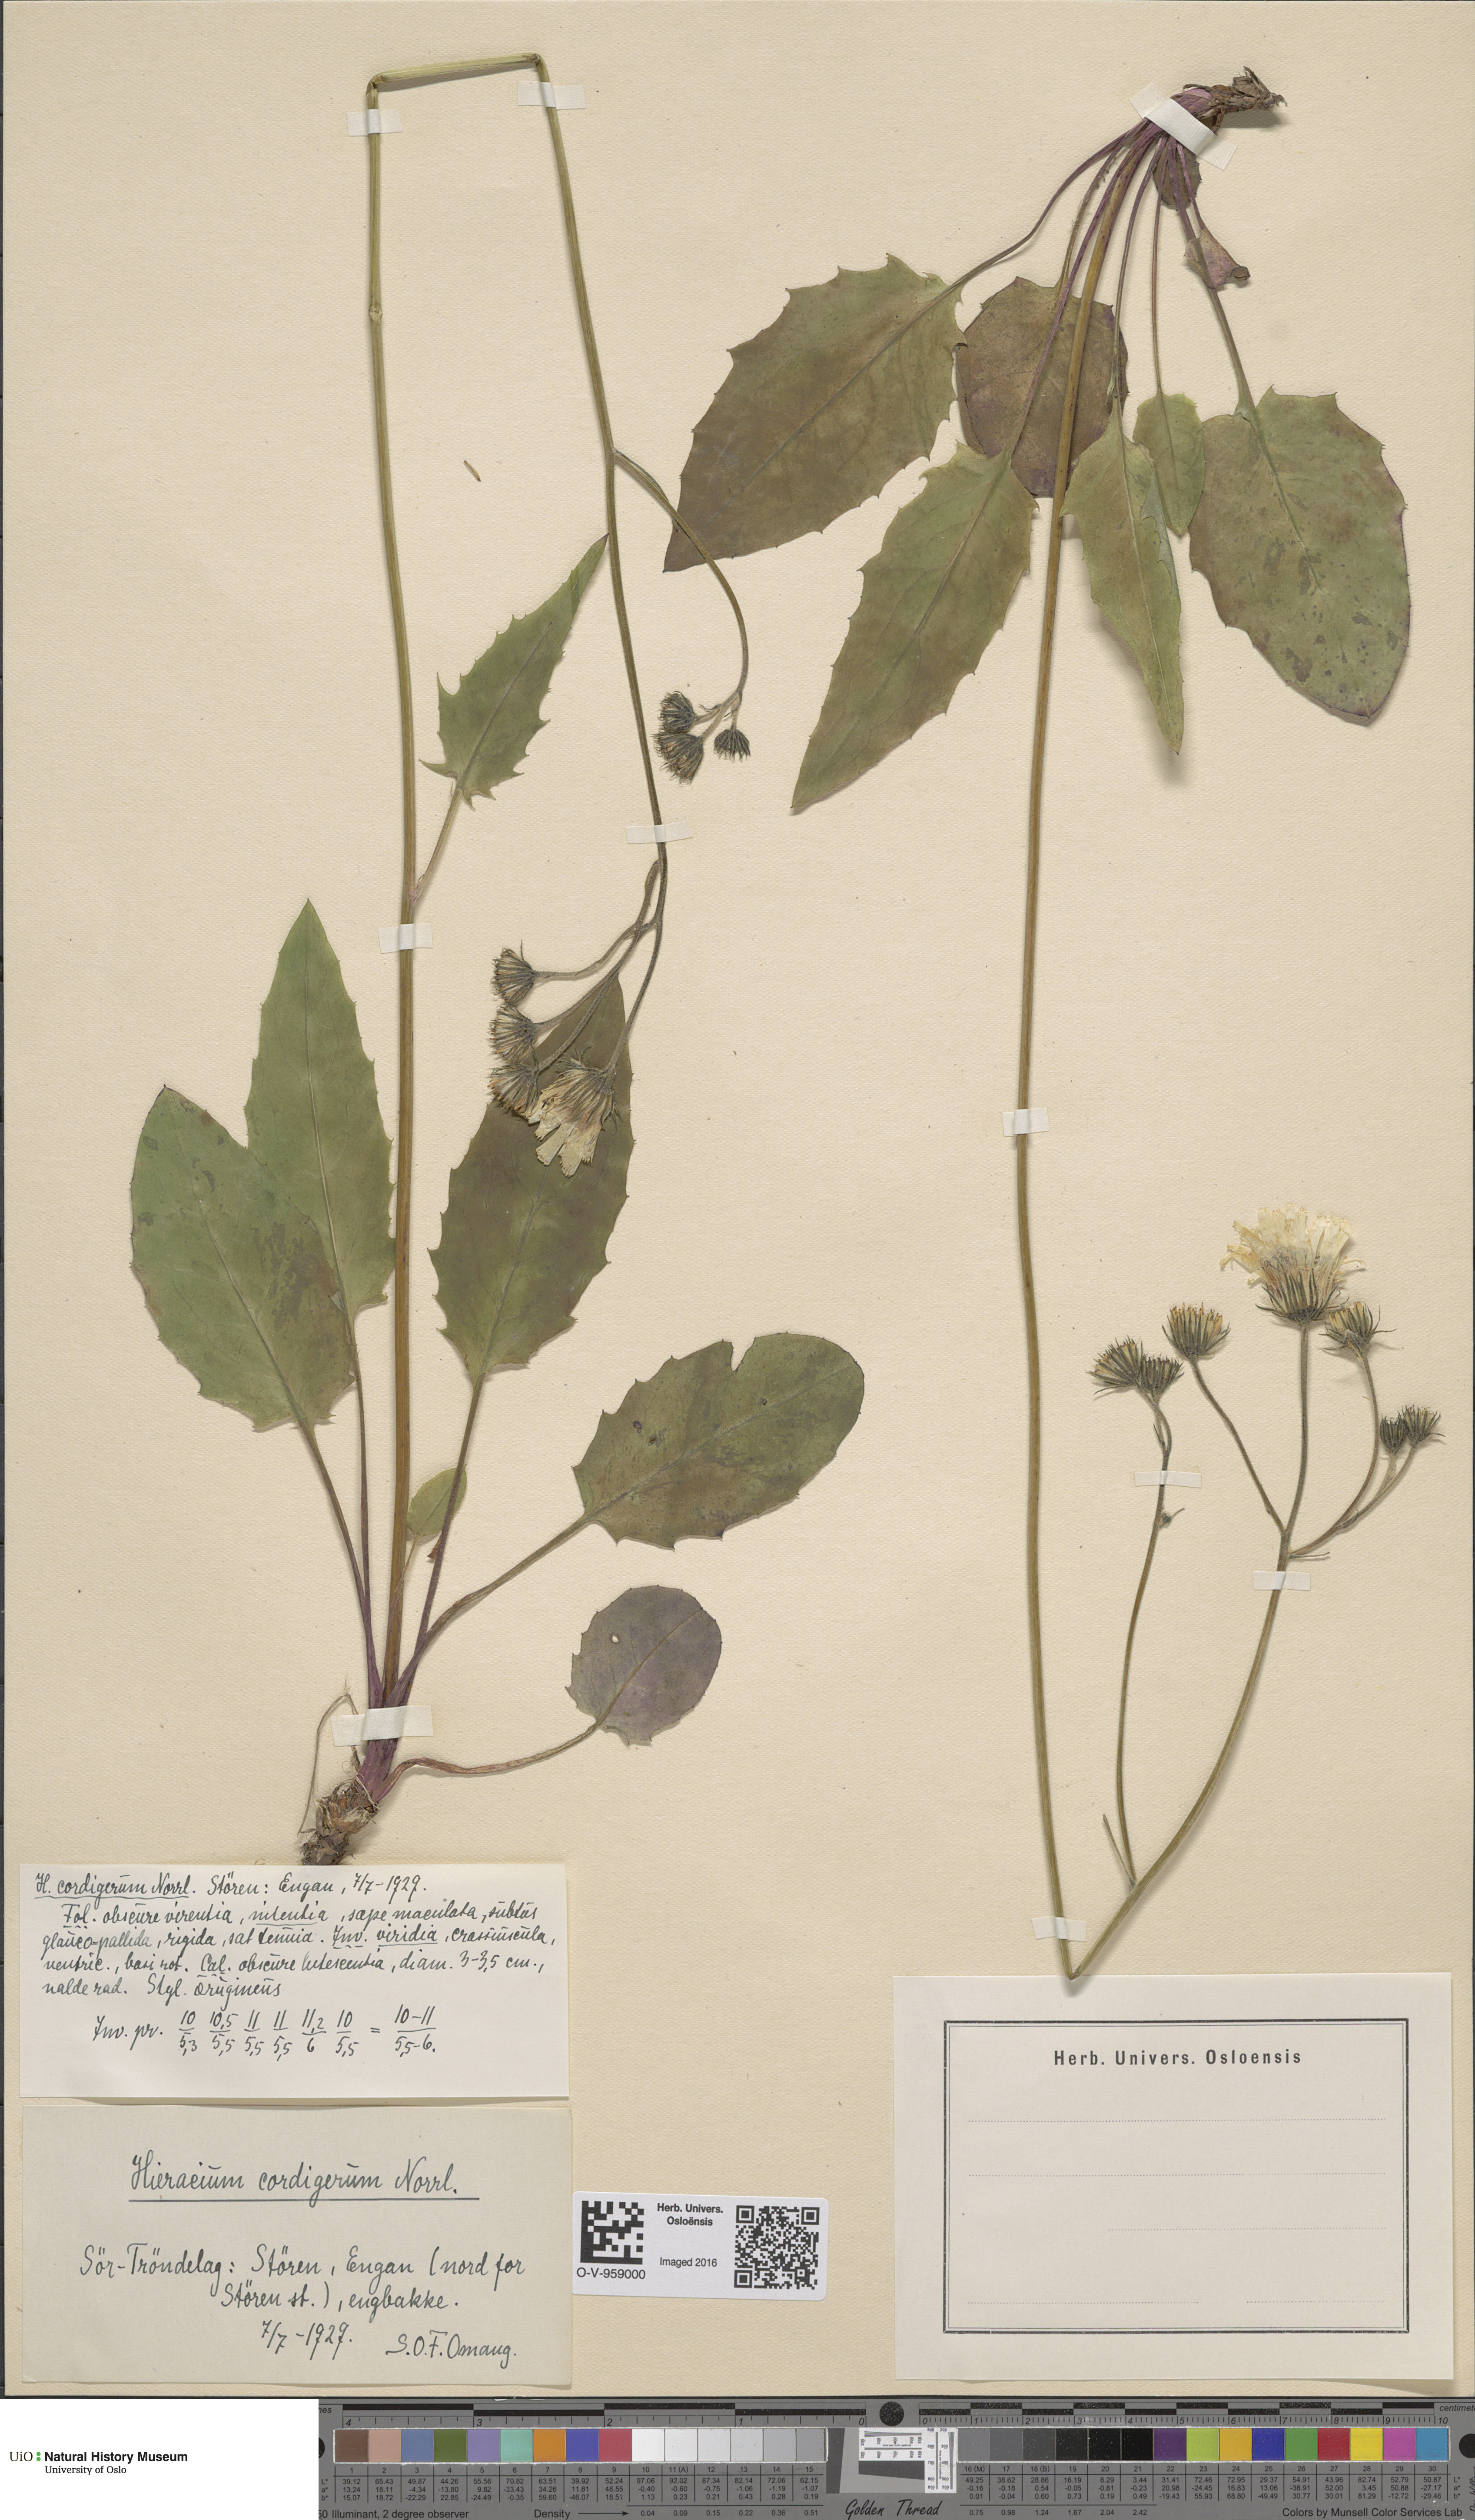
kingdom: Plantae
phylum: Tracheophyta
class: Magnoliopsida
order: Asterales
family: Asteraceae
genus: Hieracium
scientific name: Hieracium cordigerum
